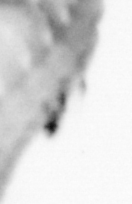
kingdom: Animalia
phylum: Annelida
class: Polychaeta
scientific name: Polychaeta
